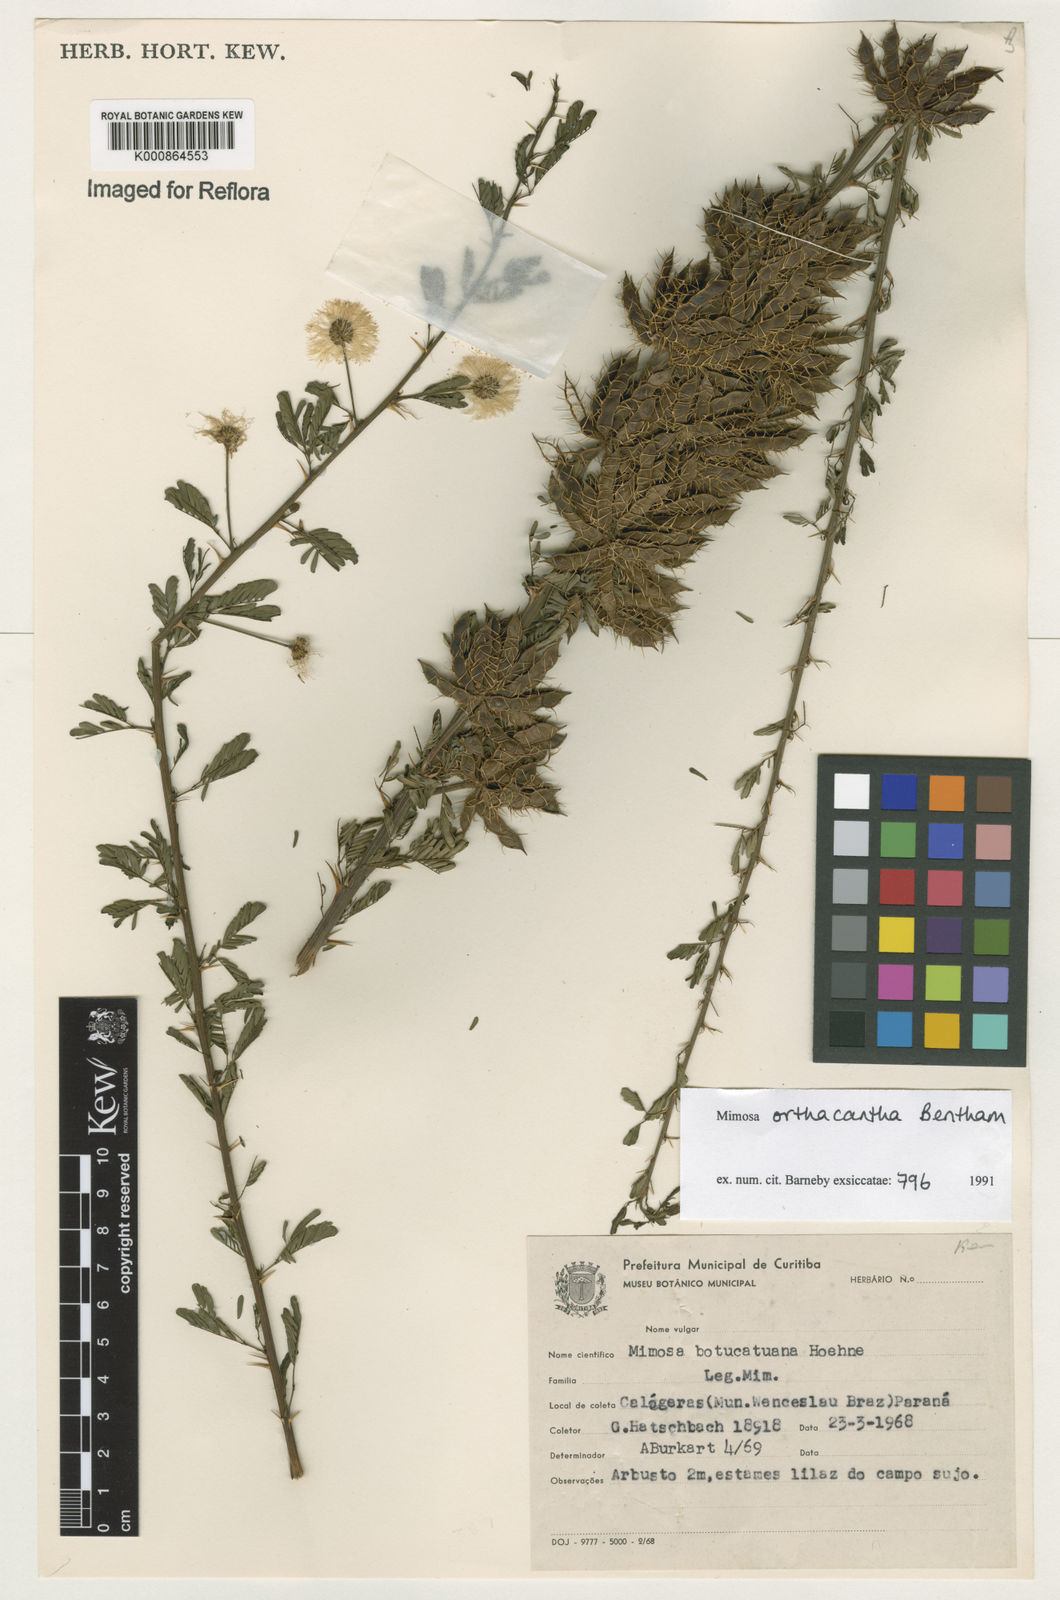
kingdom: Plantae
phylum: Tracheophyta
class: Magnoliopsida
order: Fabales
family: Fabaceae
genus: Mimosa
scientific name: Mimosa orthacantha
